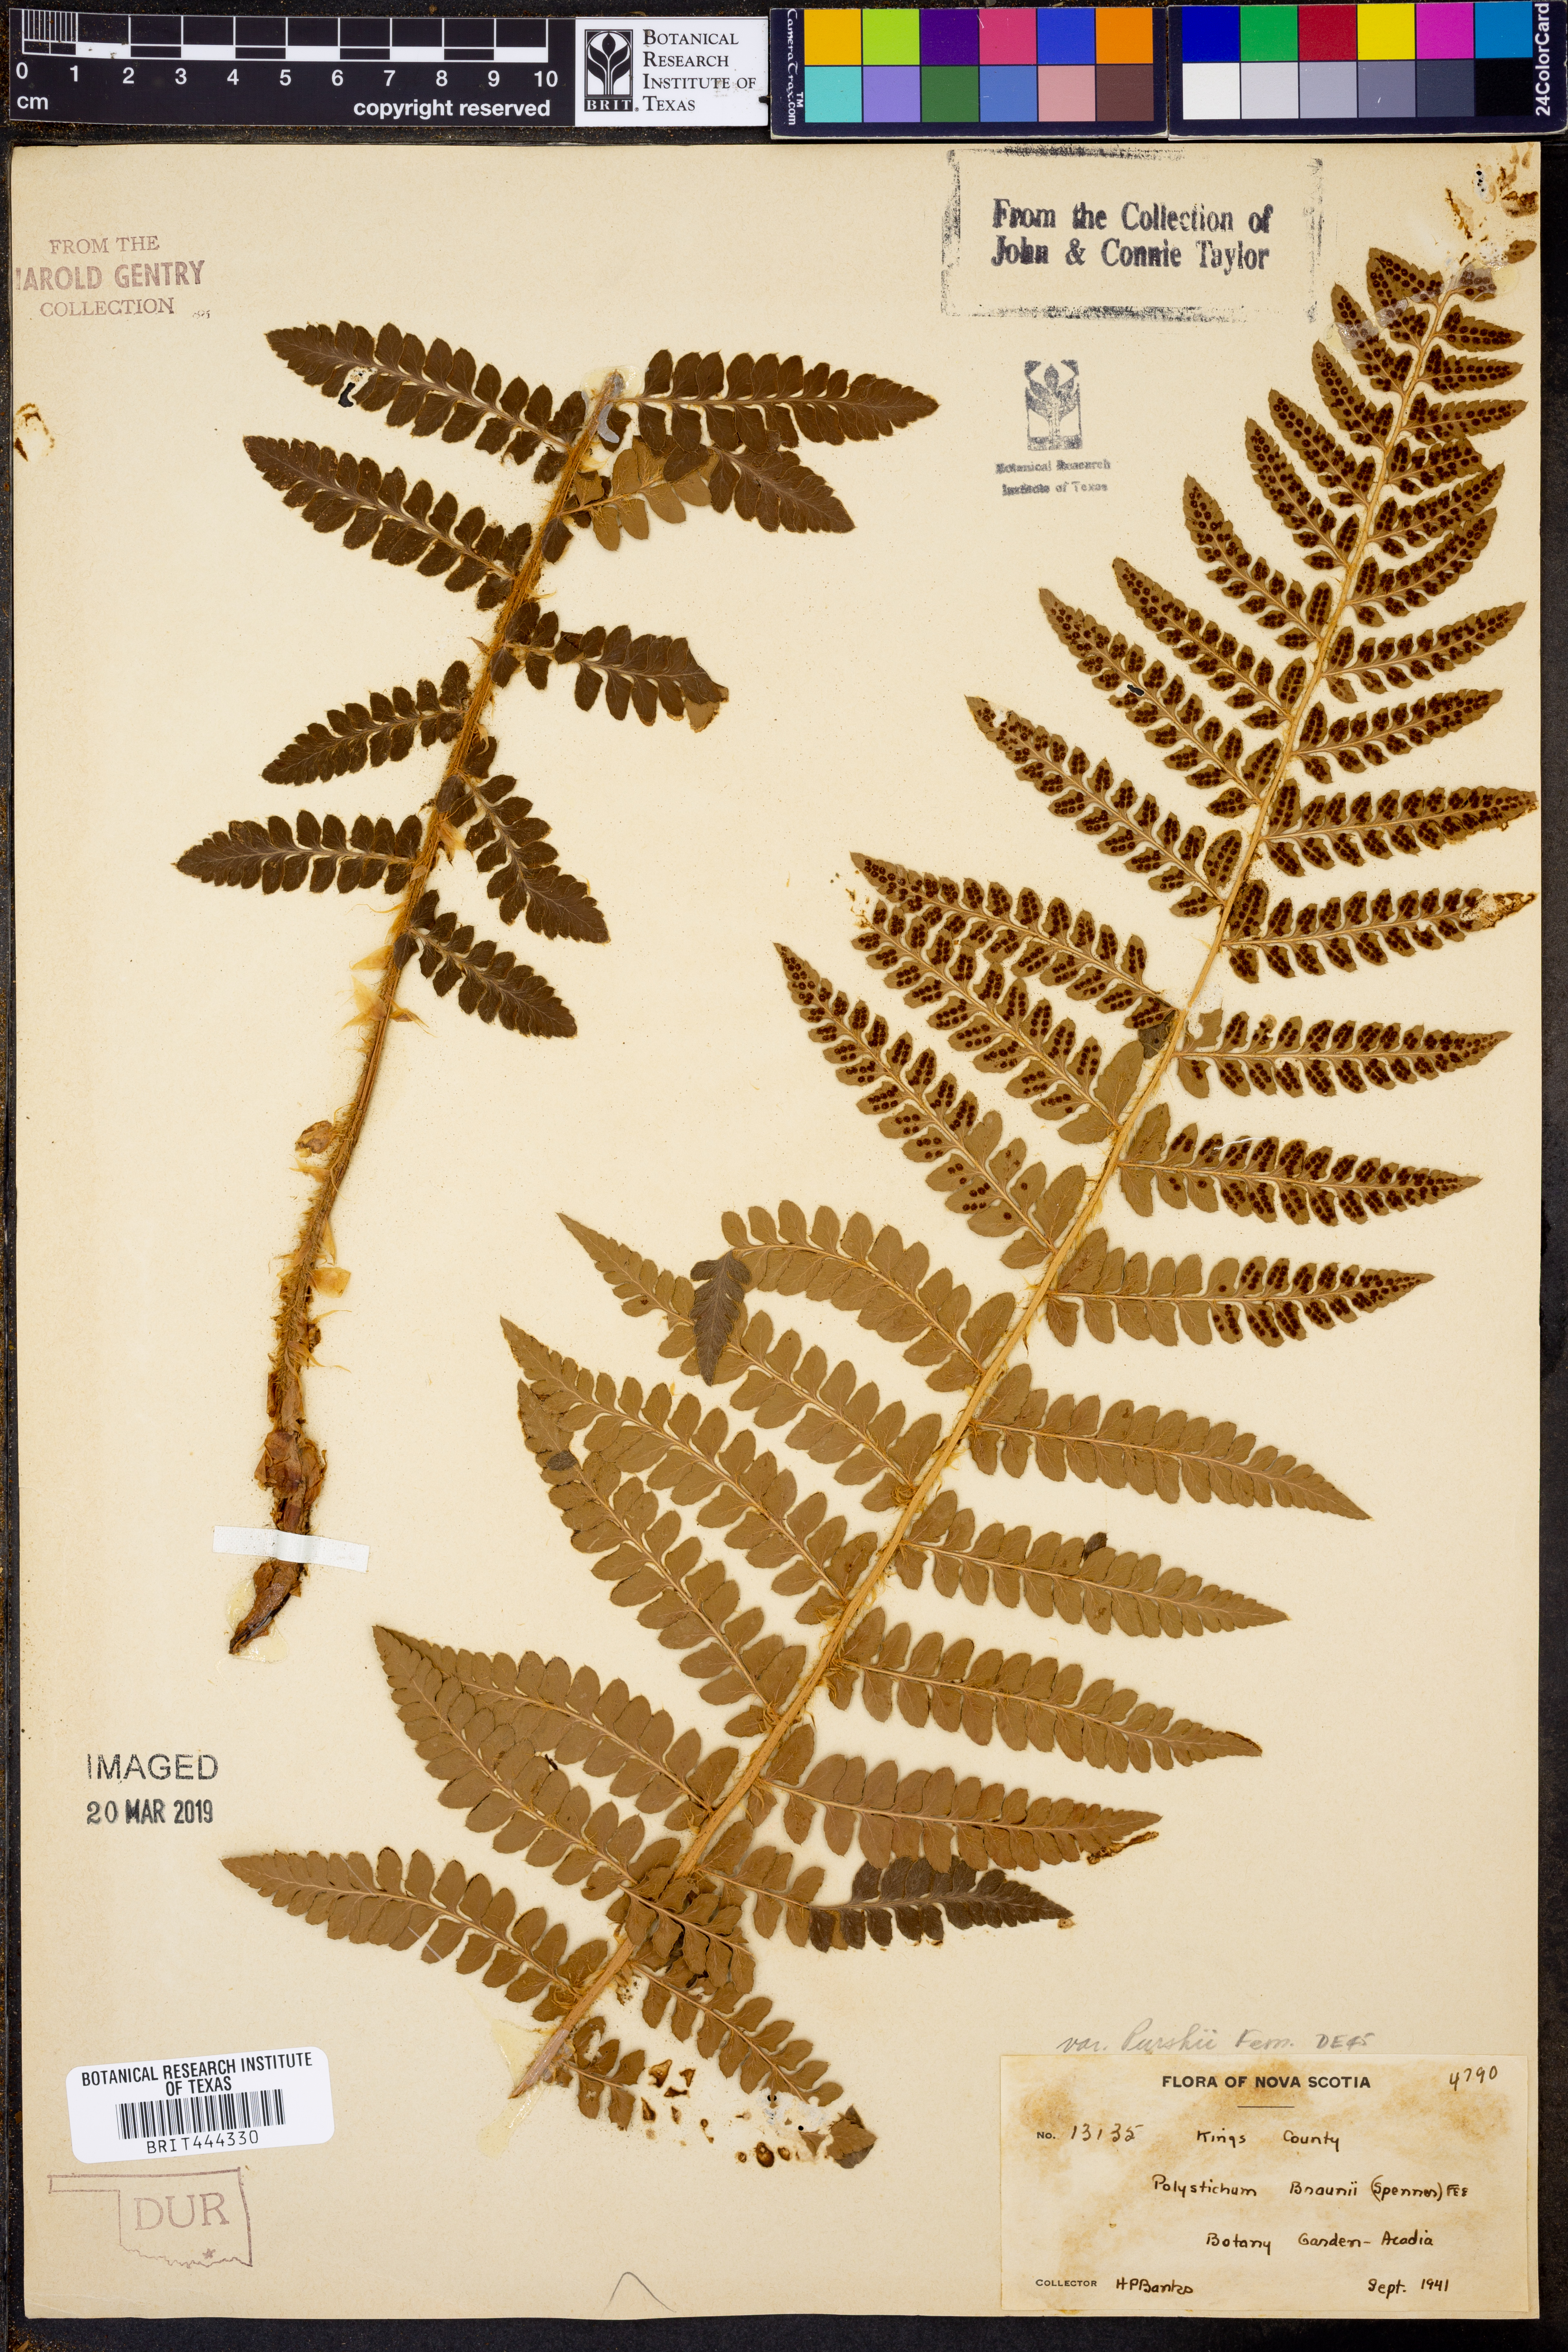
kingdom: Plantae
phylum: Tracheophyta
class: Polypodiopsida
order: Polypodiales
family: Dryopteridaceae
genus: Polystichum
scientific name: Polystichum braunii
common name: Braun's holly fern
